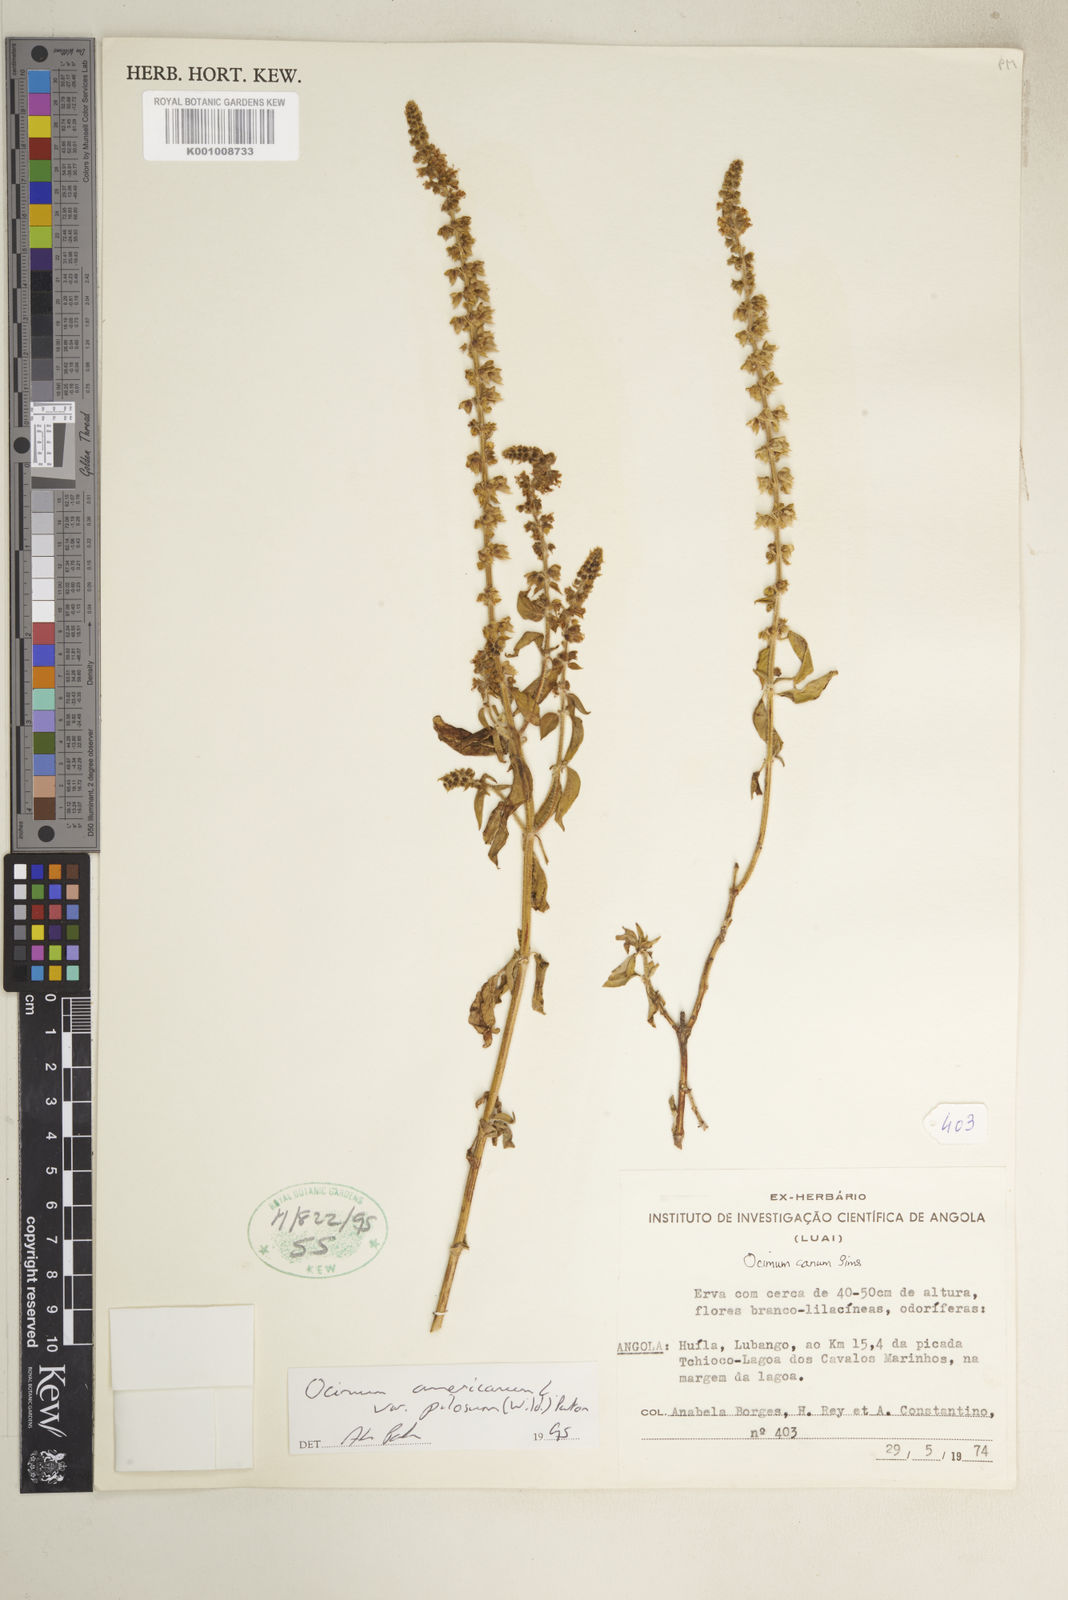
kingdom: Plantae
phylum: Tracheophyta
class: Magnoliopsida
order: Lamiales
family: Lamiaceae
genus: Ocimum
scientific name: Ocimum africanum
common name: Hoary basil
